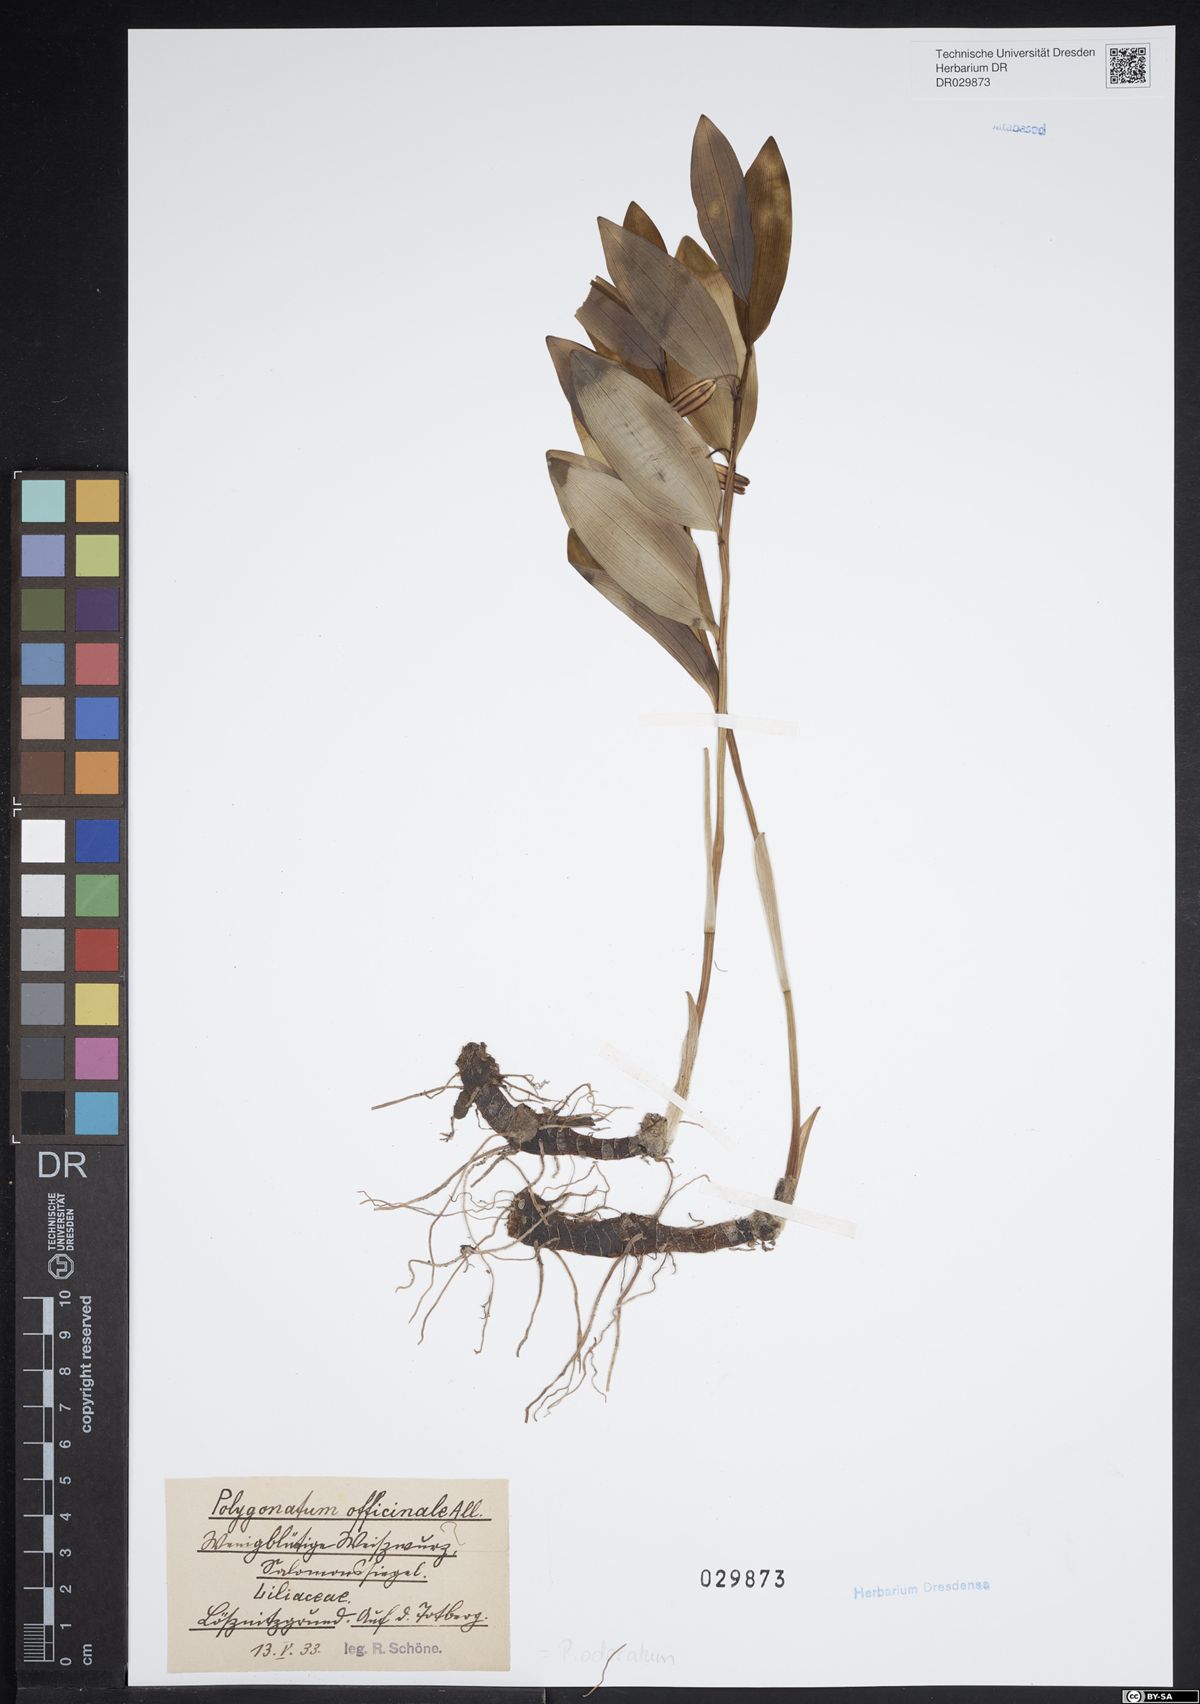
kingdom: Plantae
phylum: Tracheophyta
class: Liliopsida
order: Asparagales
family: Asparagaceae
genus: Polygonatum
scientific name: Polygonatum odoratum
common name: Angular solomon's-seal
